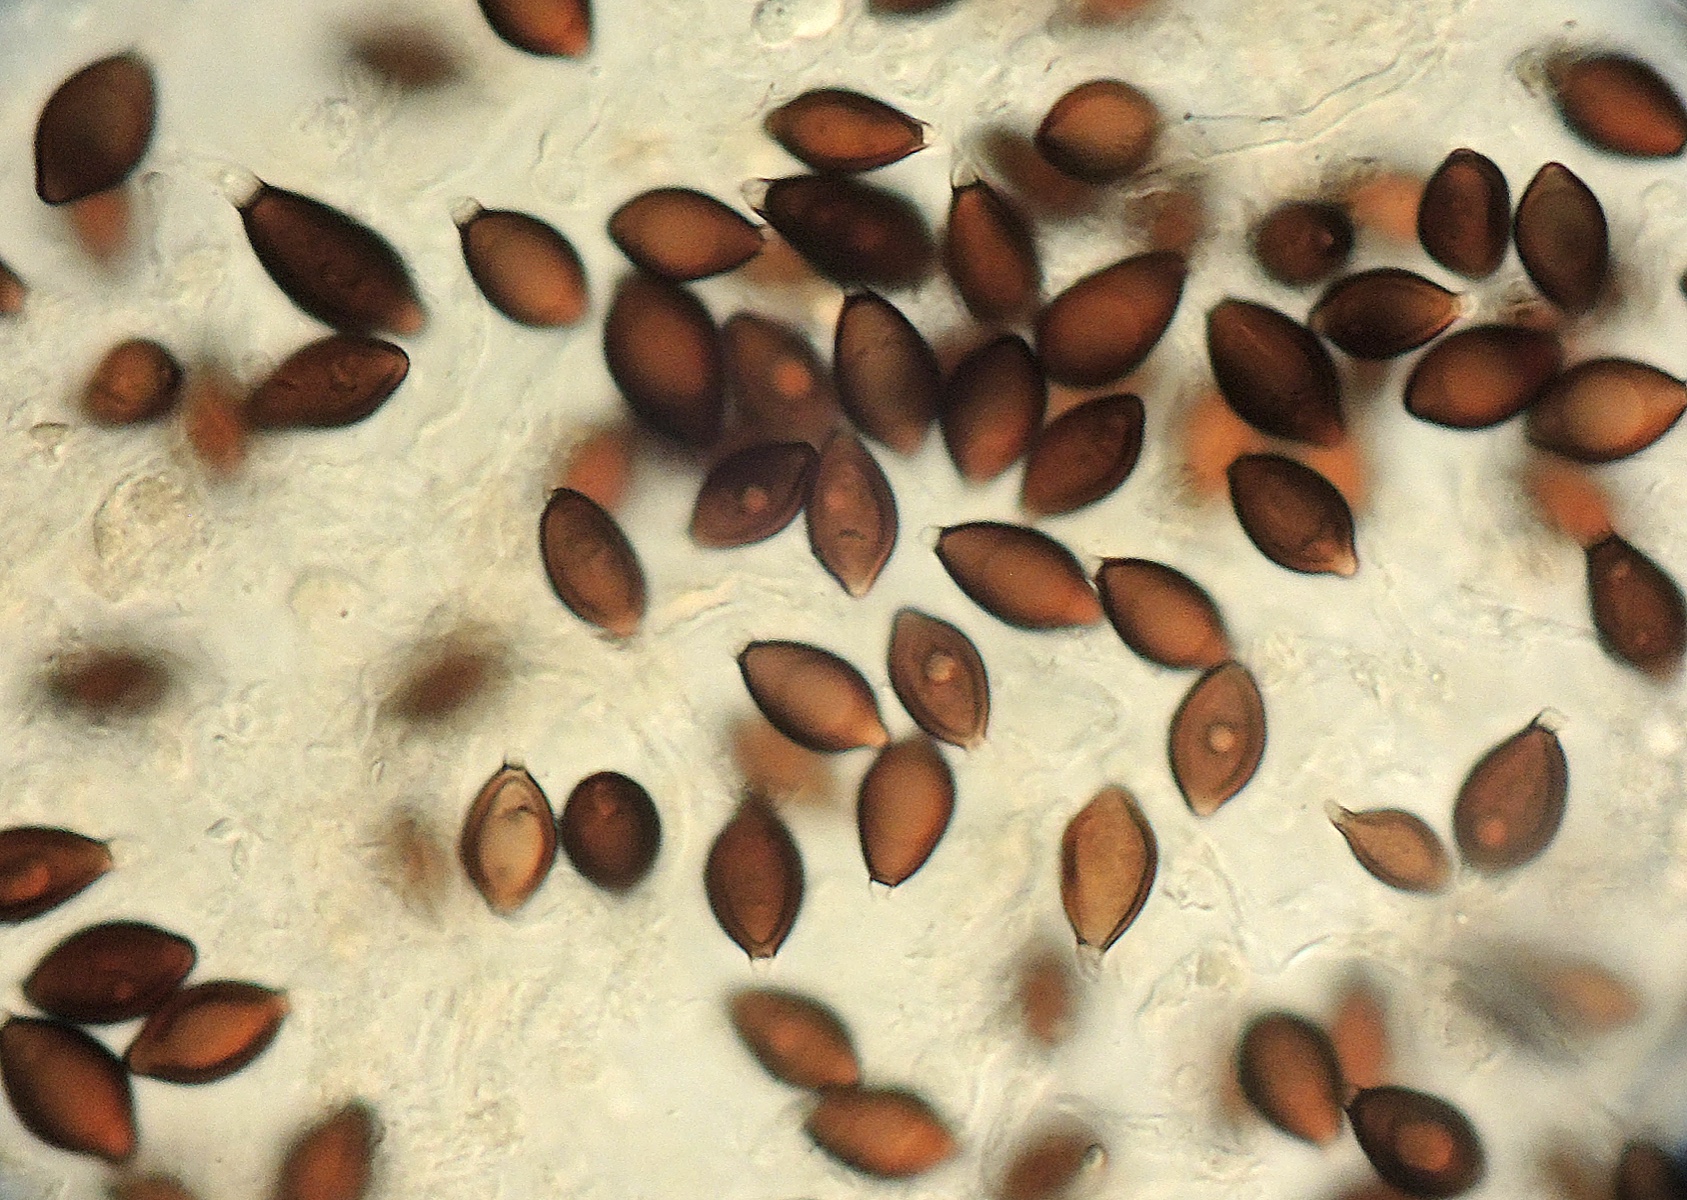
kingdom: Fungi
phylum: Basidiomycota
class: Agaricomycetes
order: Boletales
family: Paxillaceae
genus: Melanogaster
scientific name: Melanogaster ambiguus
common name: lille slimtrøffel
